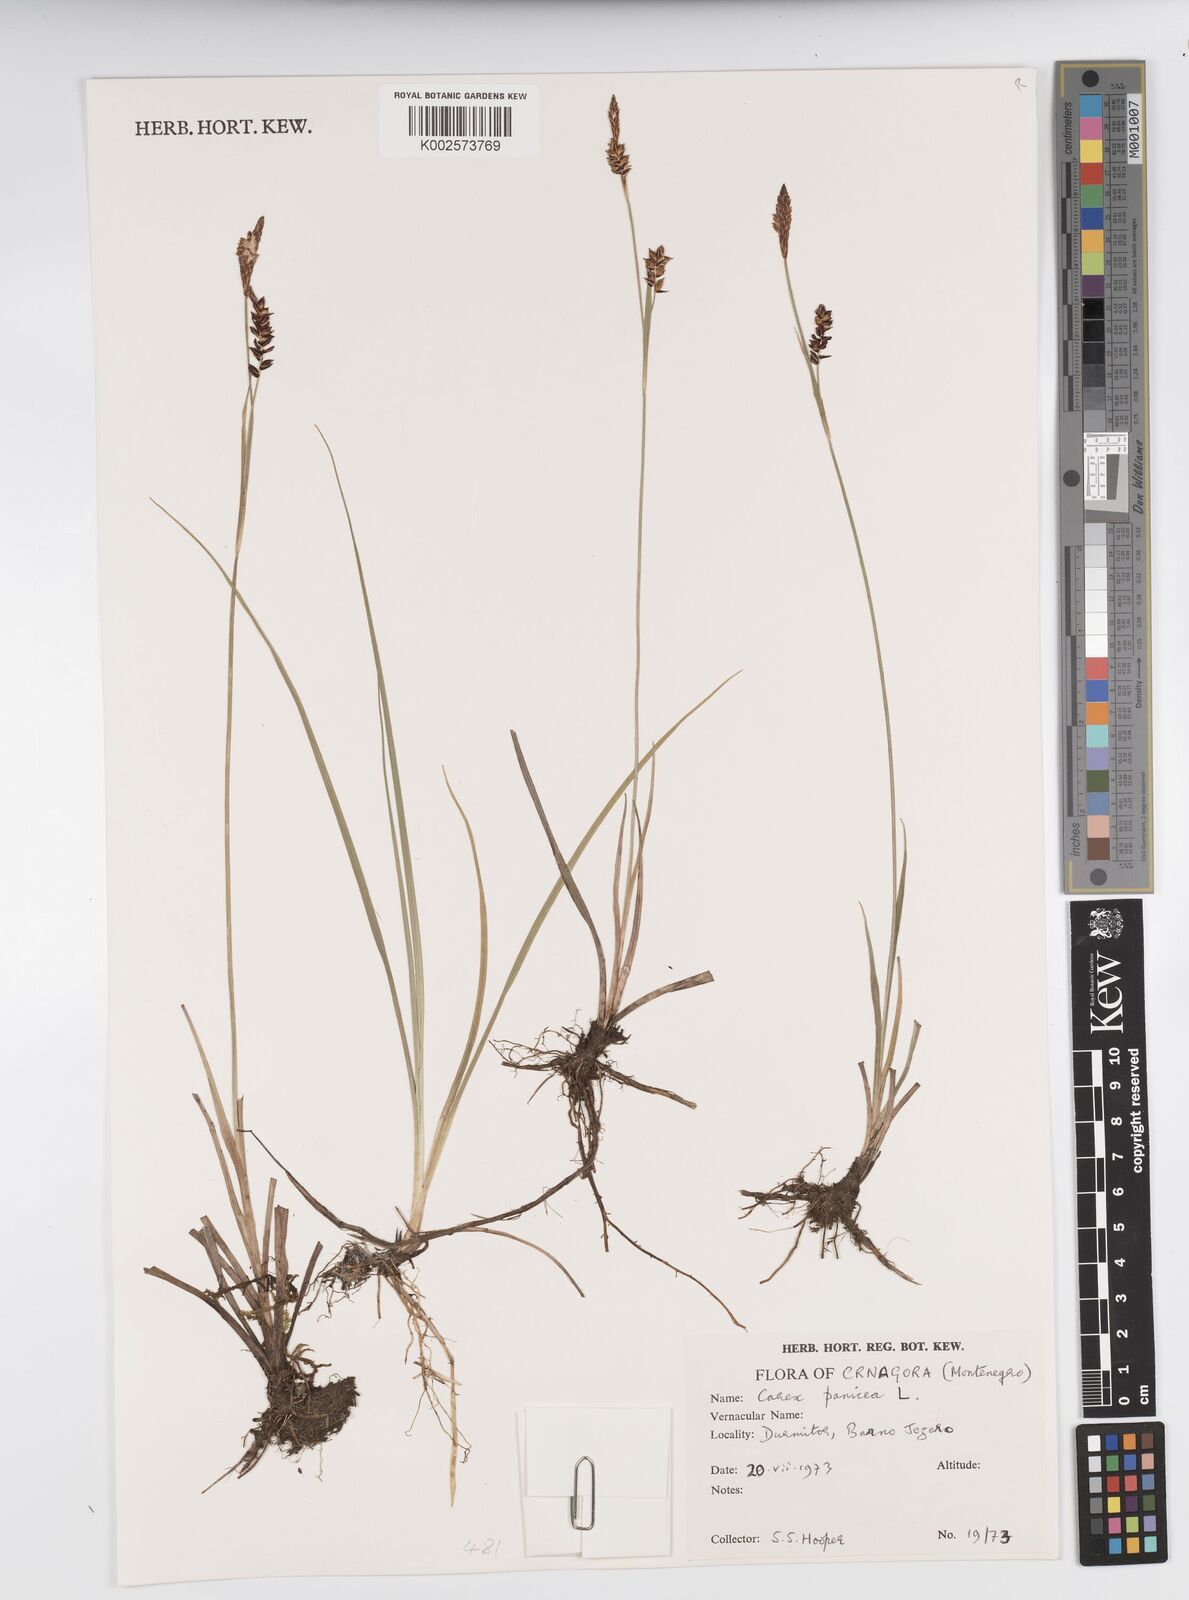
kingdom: Plantae
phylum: Tracheophyta
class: Liliopsida
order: Poales
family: Cyperaceae
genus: Carex
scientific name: Carex panicea
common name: Carnation sedge
